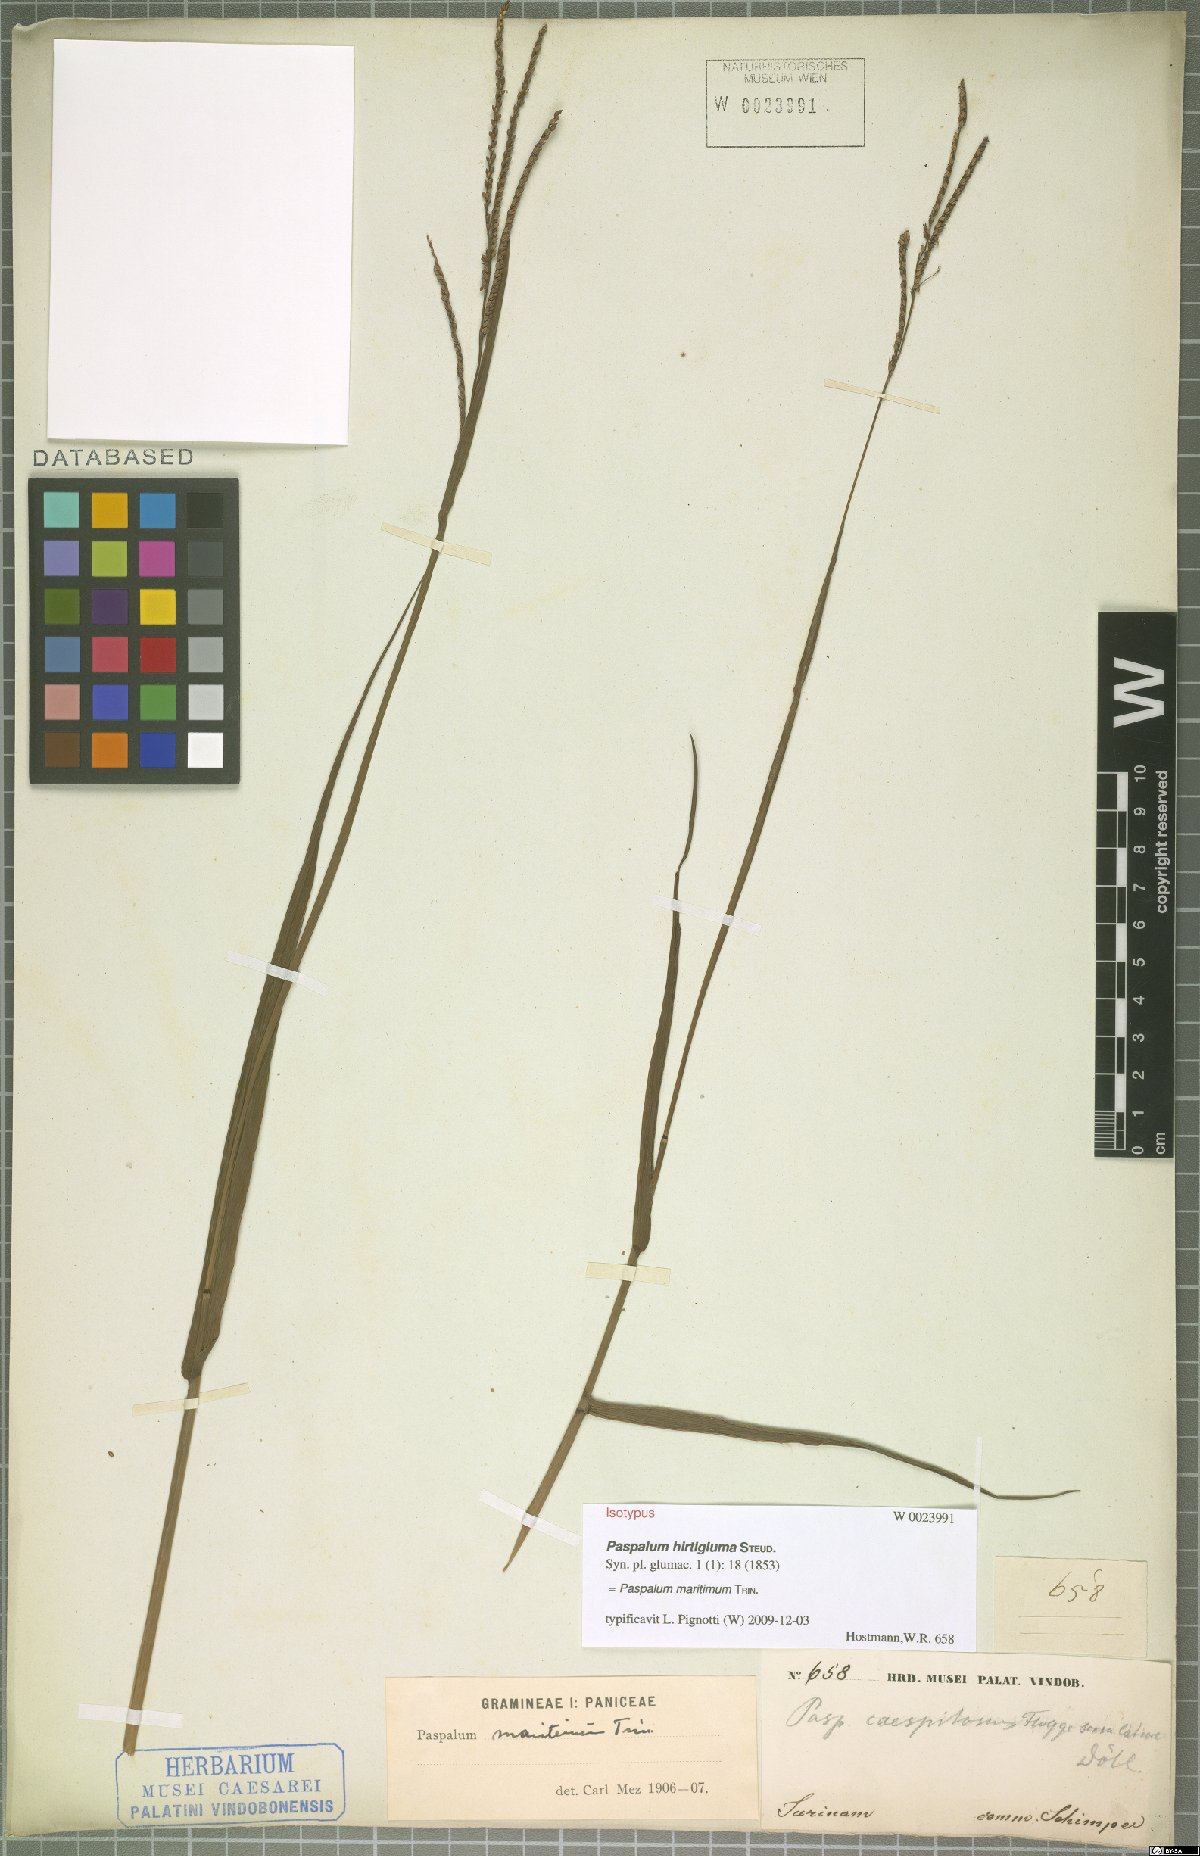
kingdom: Plantae
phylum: Tracheophyta
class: Liliopsida
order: Poales
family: Poaceae
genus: Paspalum
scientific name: Paspalum maritimum
